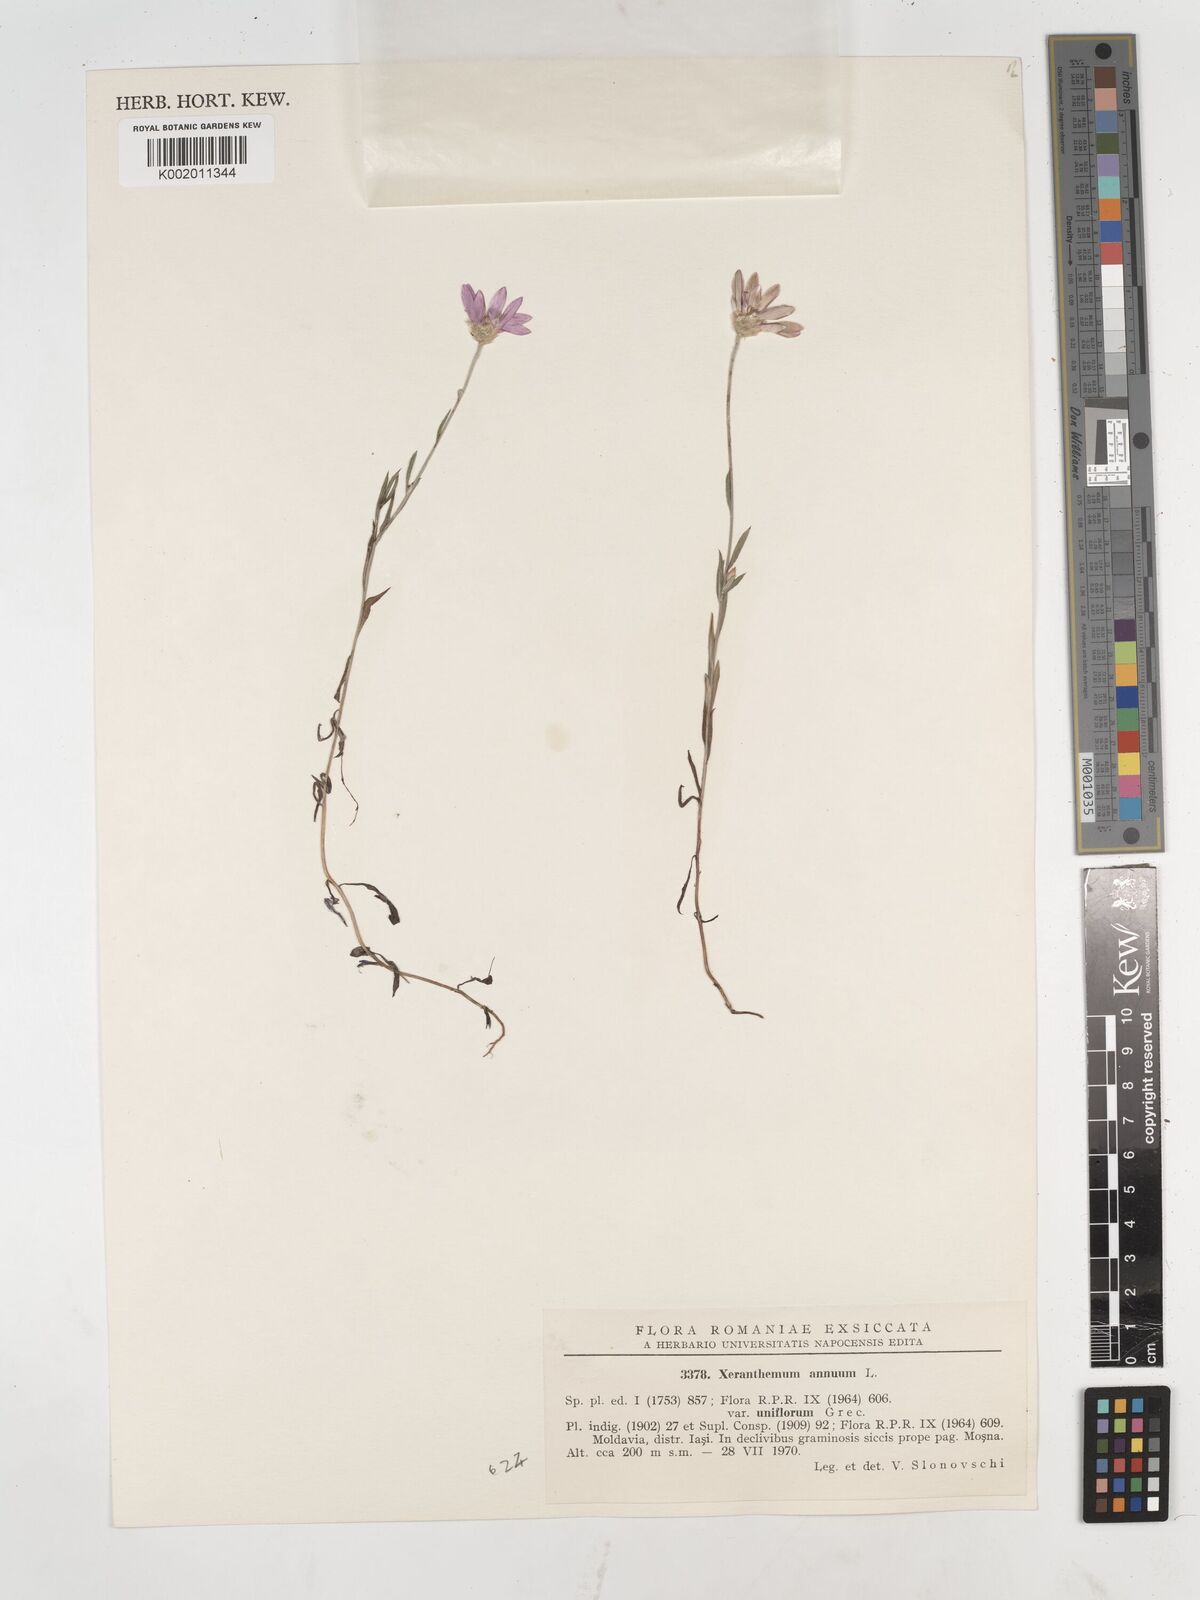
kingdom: Plantae
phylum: Tracheophyta
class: Magnoliopsida
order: Asterales
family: Asteraceae
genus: Xeranthemum
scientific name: Xeranthemum annuum
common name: Immortelle
